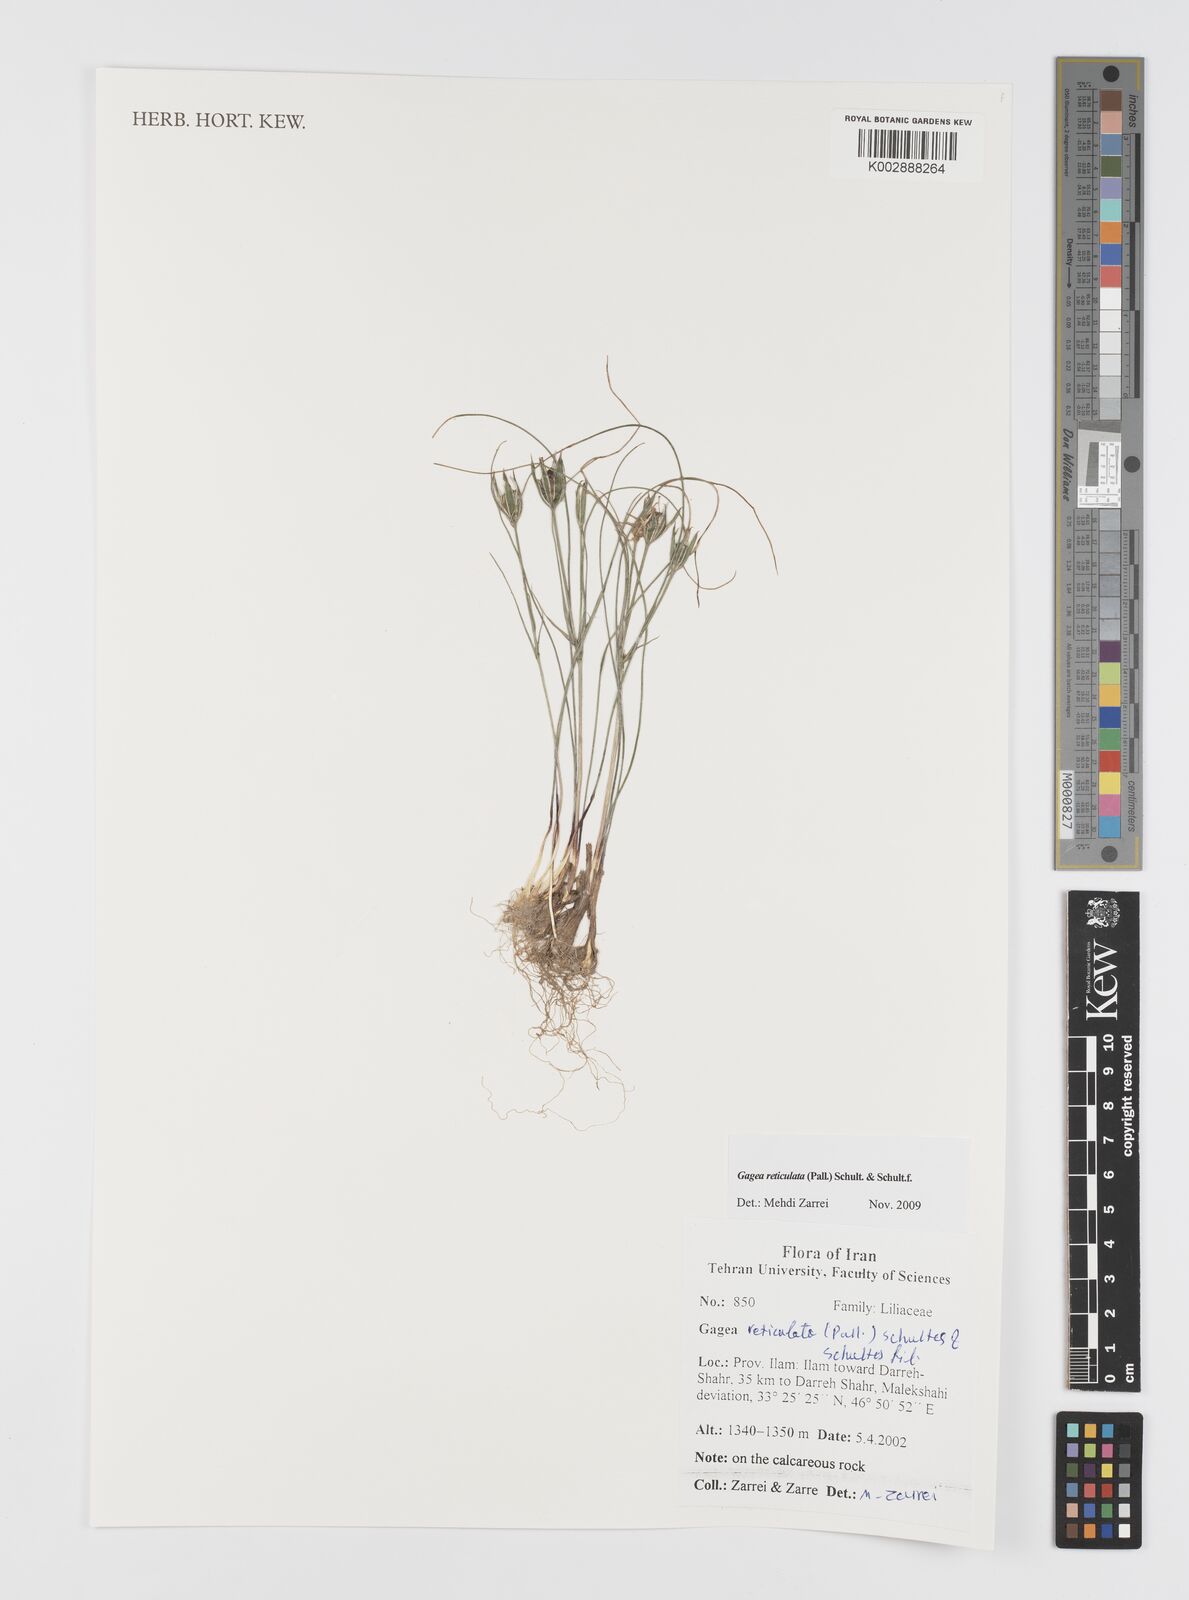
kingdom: Plantae
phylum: Tracheophyta
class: Liliopsida
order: Liliales
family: Liliaceae
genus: Gagea
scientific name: Gagea reticulata
